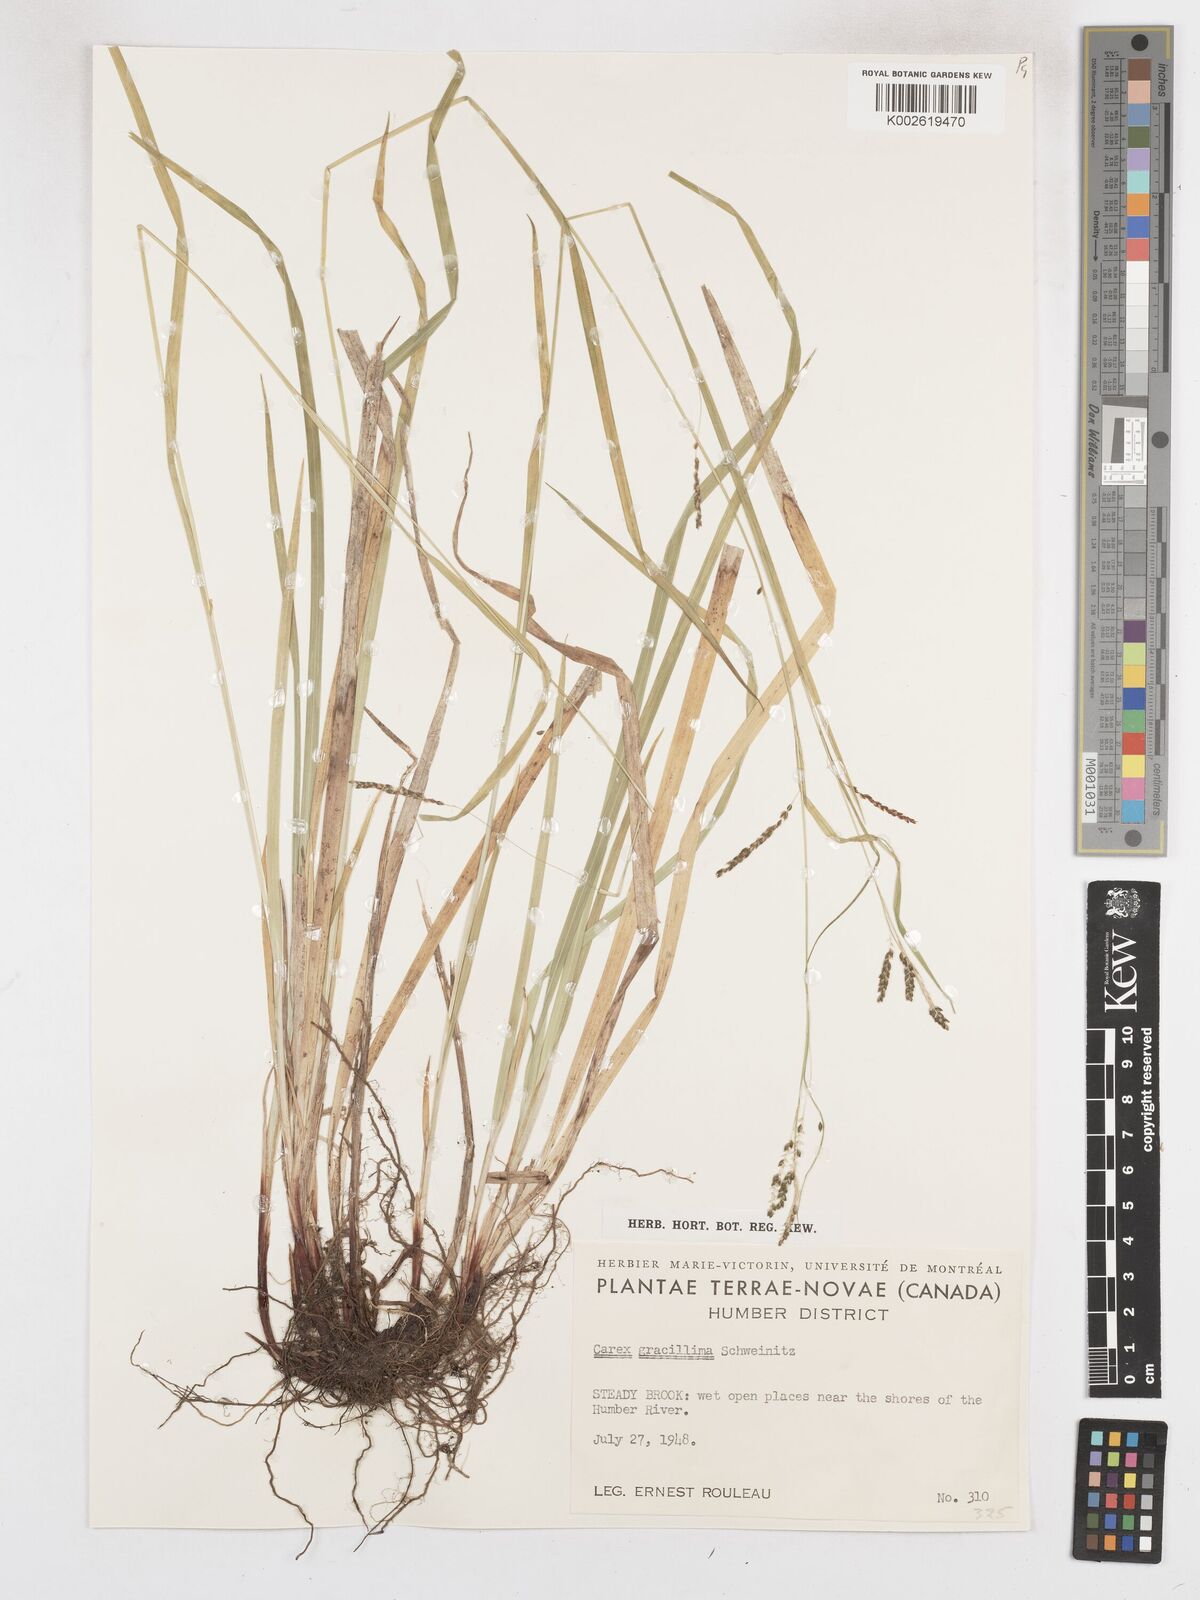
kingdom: Plantae
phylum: Tracheophyta
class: Liliopsida
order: Poales
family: Cyperaceae
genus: Carex
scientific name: Carex gracillima
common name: Graceful sedge
